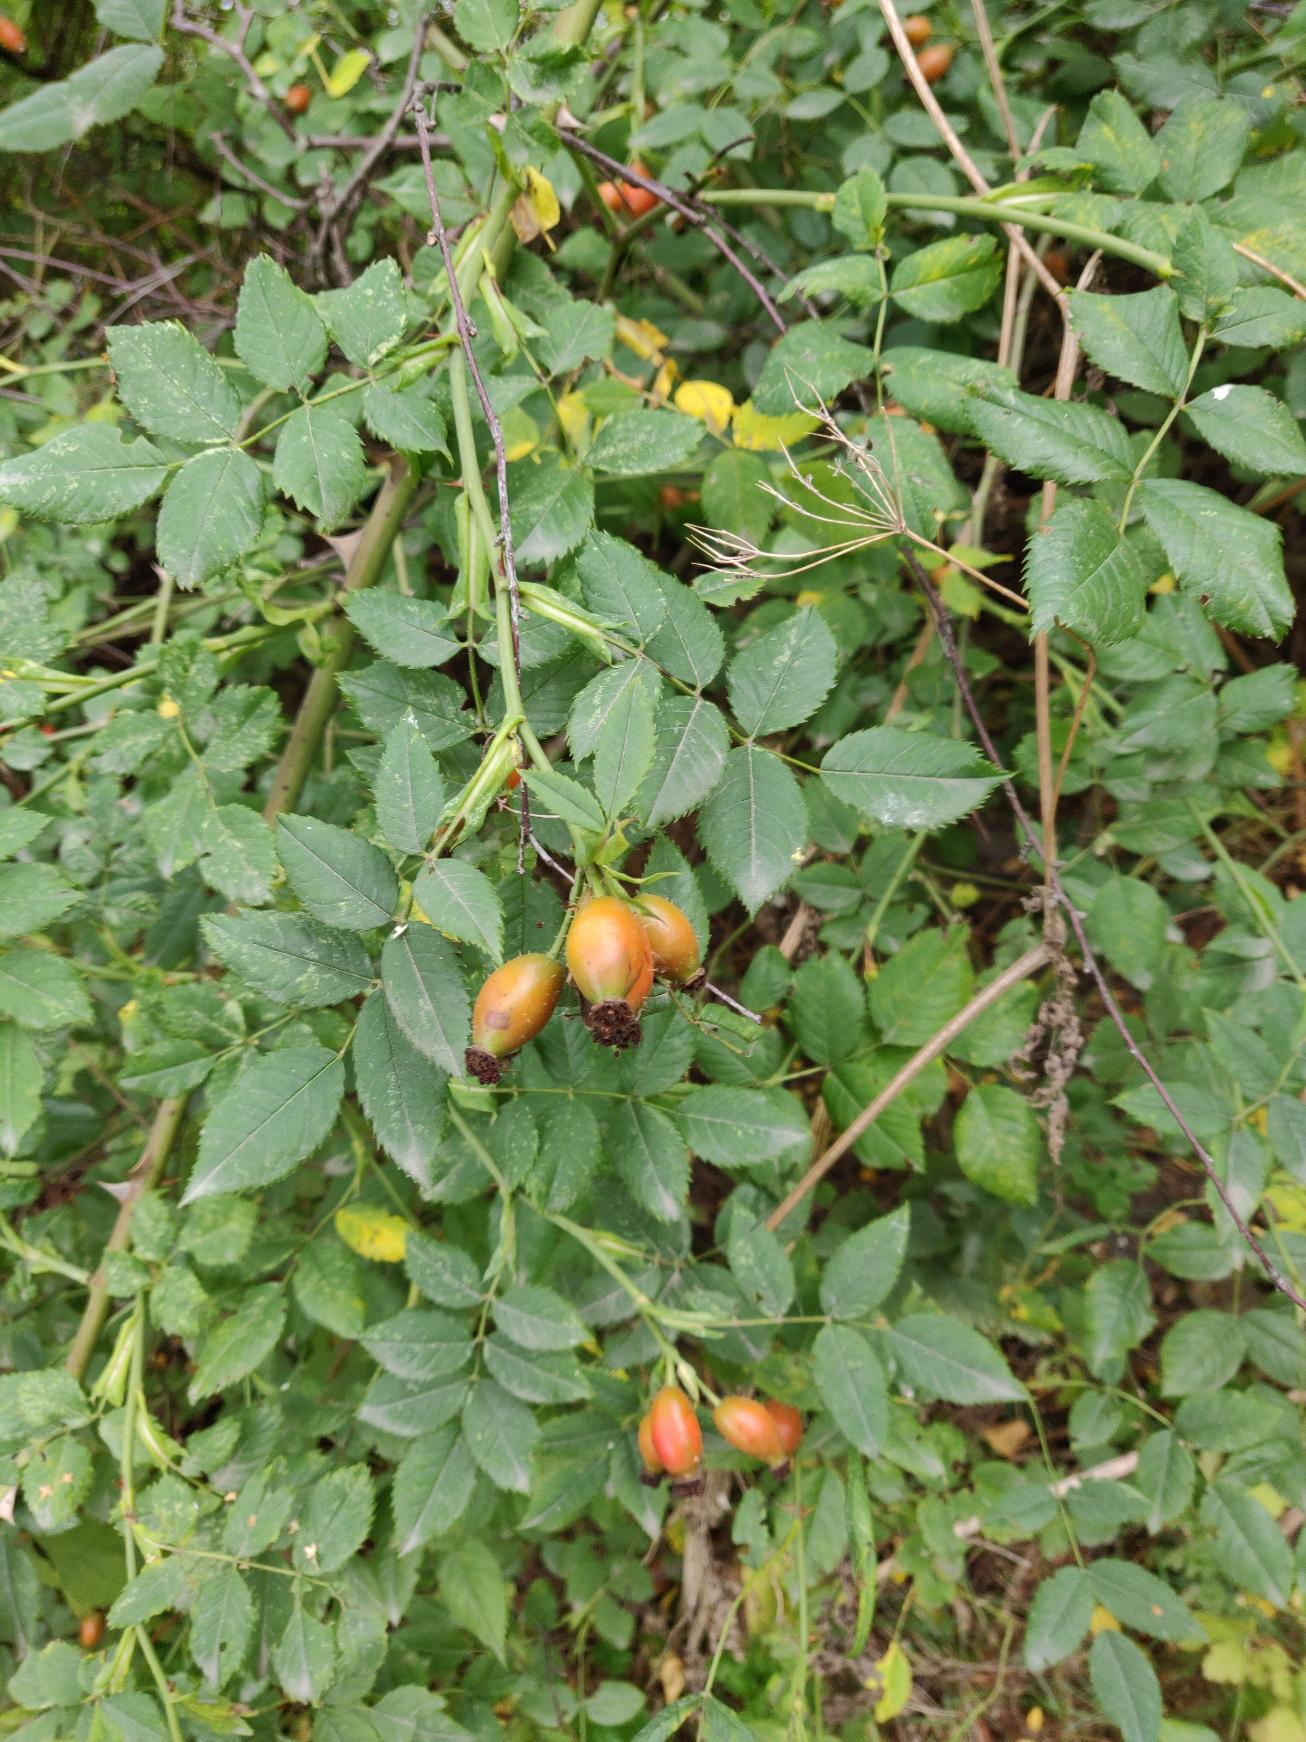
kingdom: Plantae
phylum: Tracheophyta
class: Magnoliopsida
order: Rosales
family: Rosaceae
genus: Rosa
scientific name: Rosa
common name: Roseslægten
